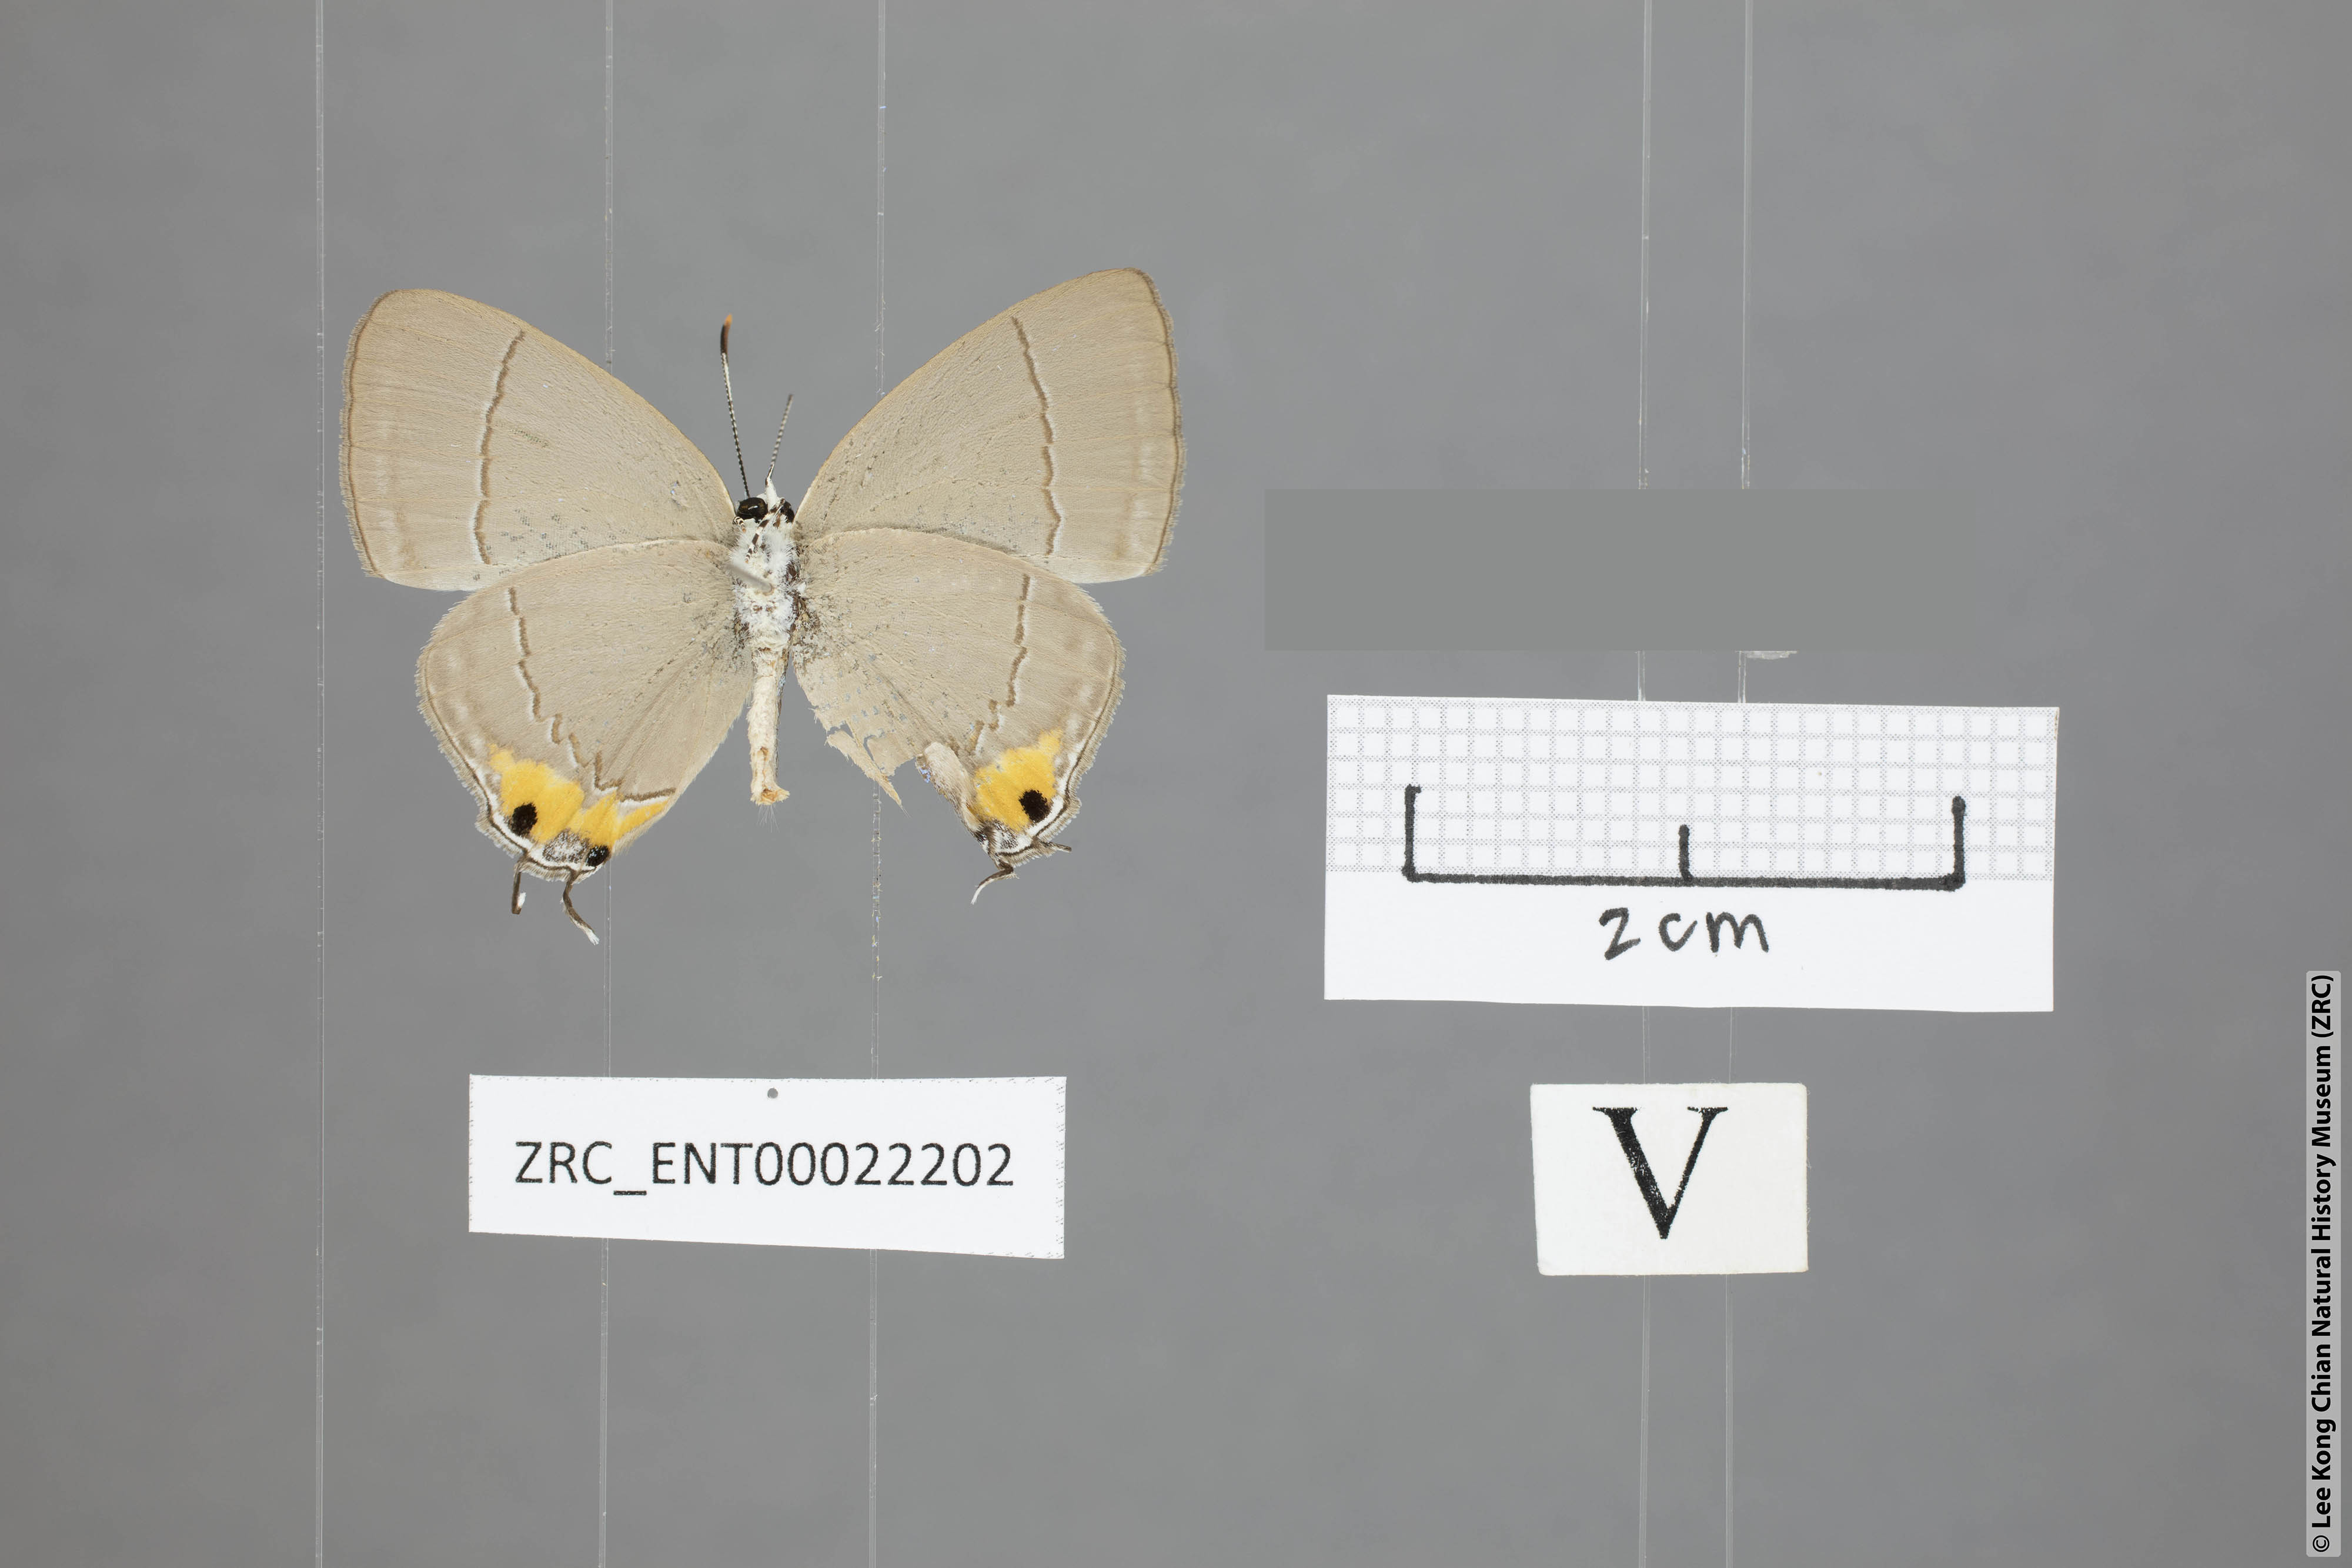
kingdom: Animalia
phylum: Arthropoda
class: Insecta
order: Lepidoptera
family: Lycaenidae
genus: Tajuria
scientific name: Tajuria isaeus
